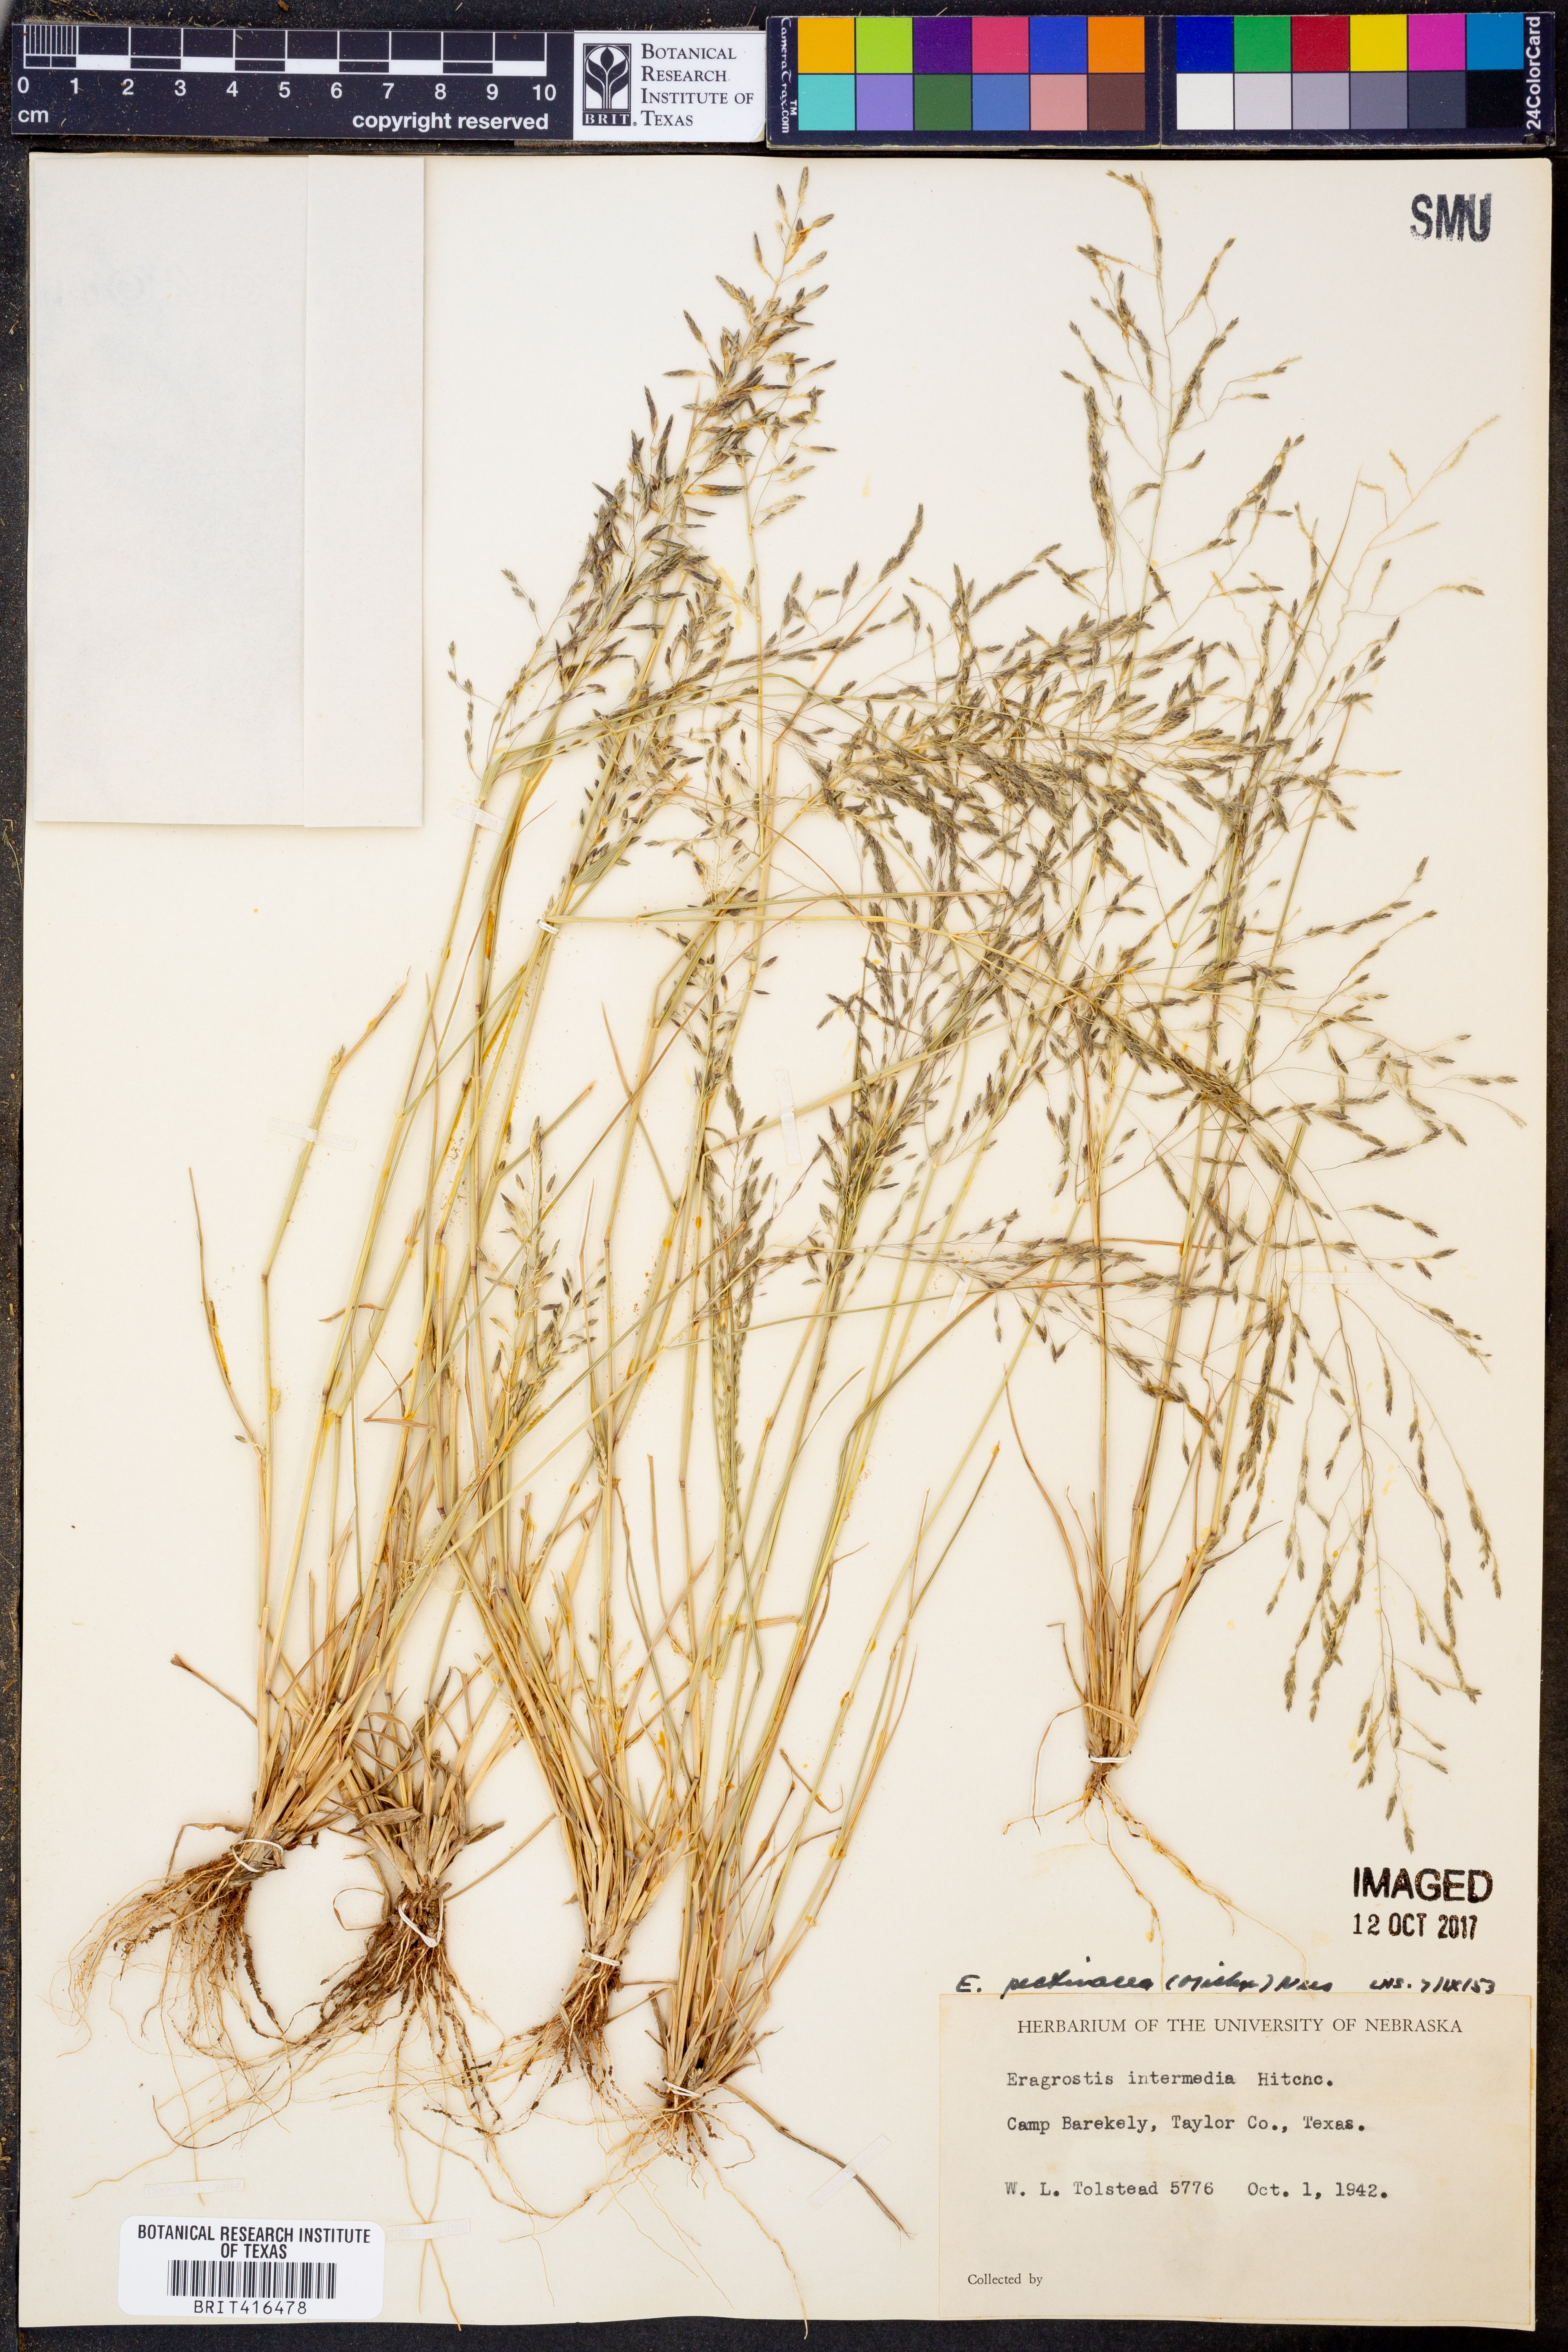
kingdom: Plantae
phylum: Tracheophyta
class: Liliopsida
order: Poales
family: Poaceae
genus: Eragrostis
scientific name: Eragrostis pectinacea
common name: Tufted lovegrass
